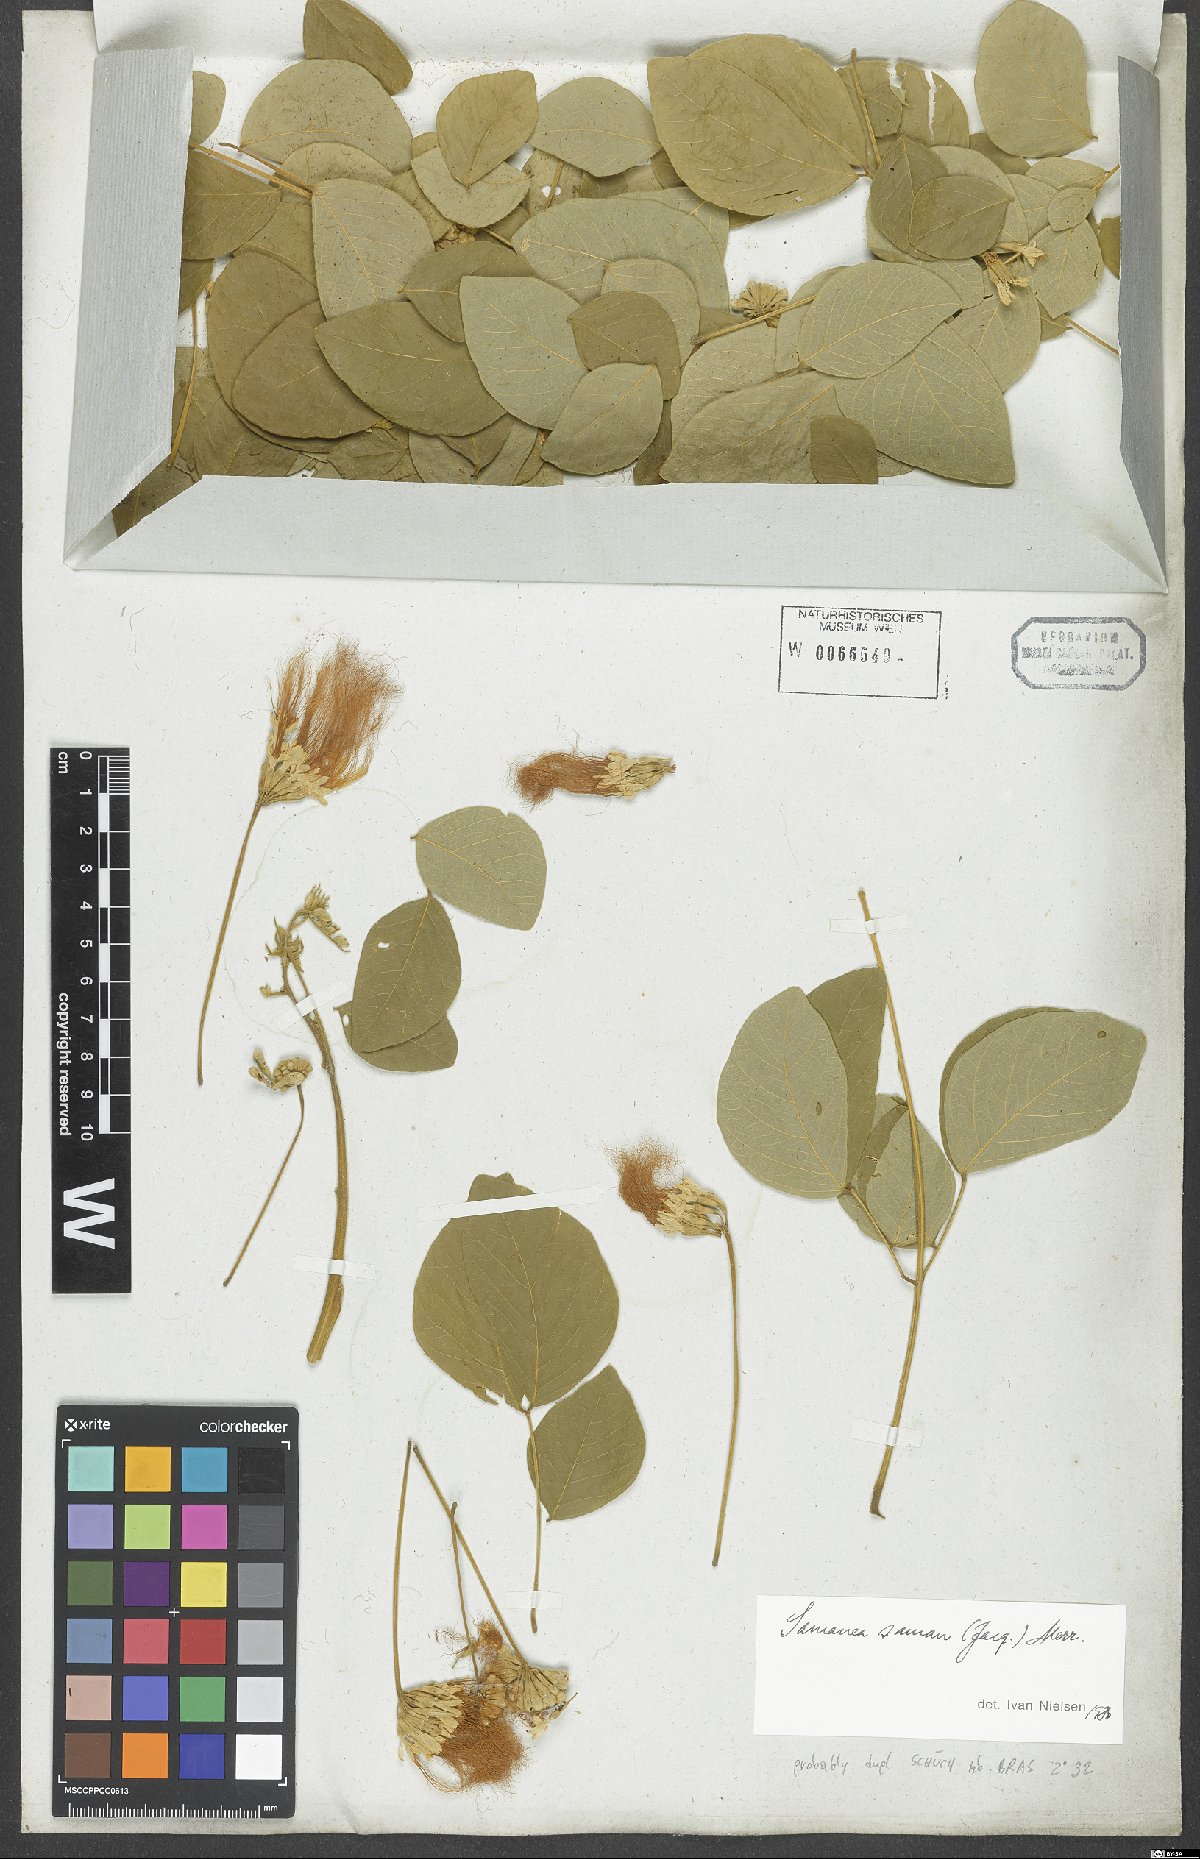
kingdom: Plantae
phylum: Tracheophyta
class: Magnoliopsida
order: Fabales
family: Fabaceae
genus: Samanea
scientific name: Samanea saman
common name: Raintree
